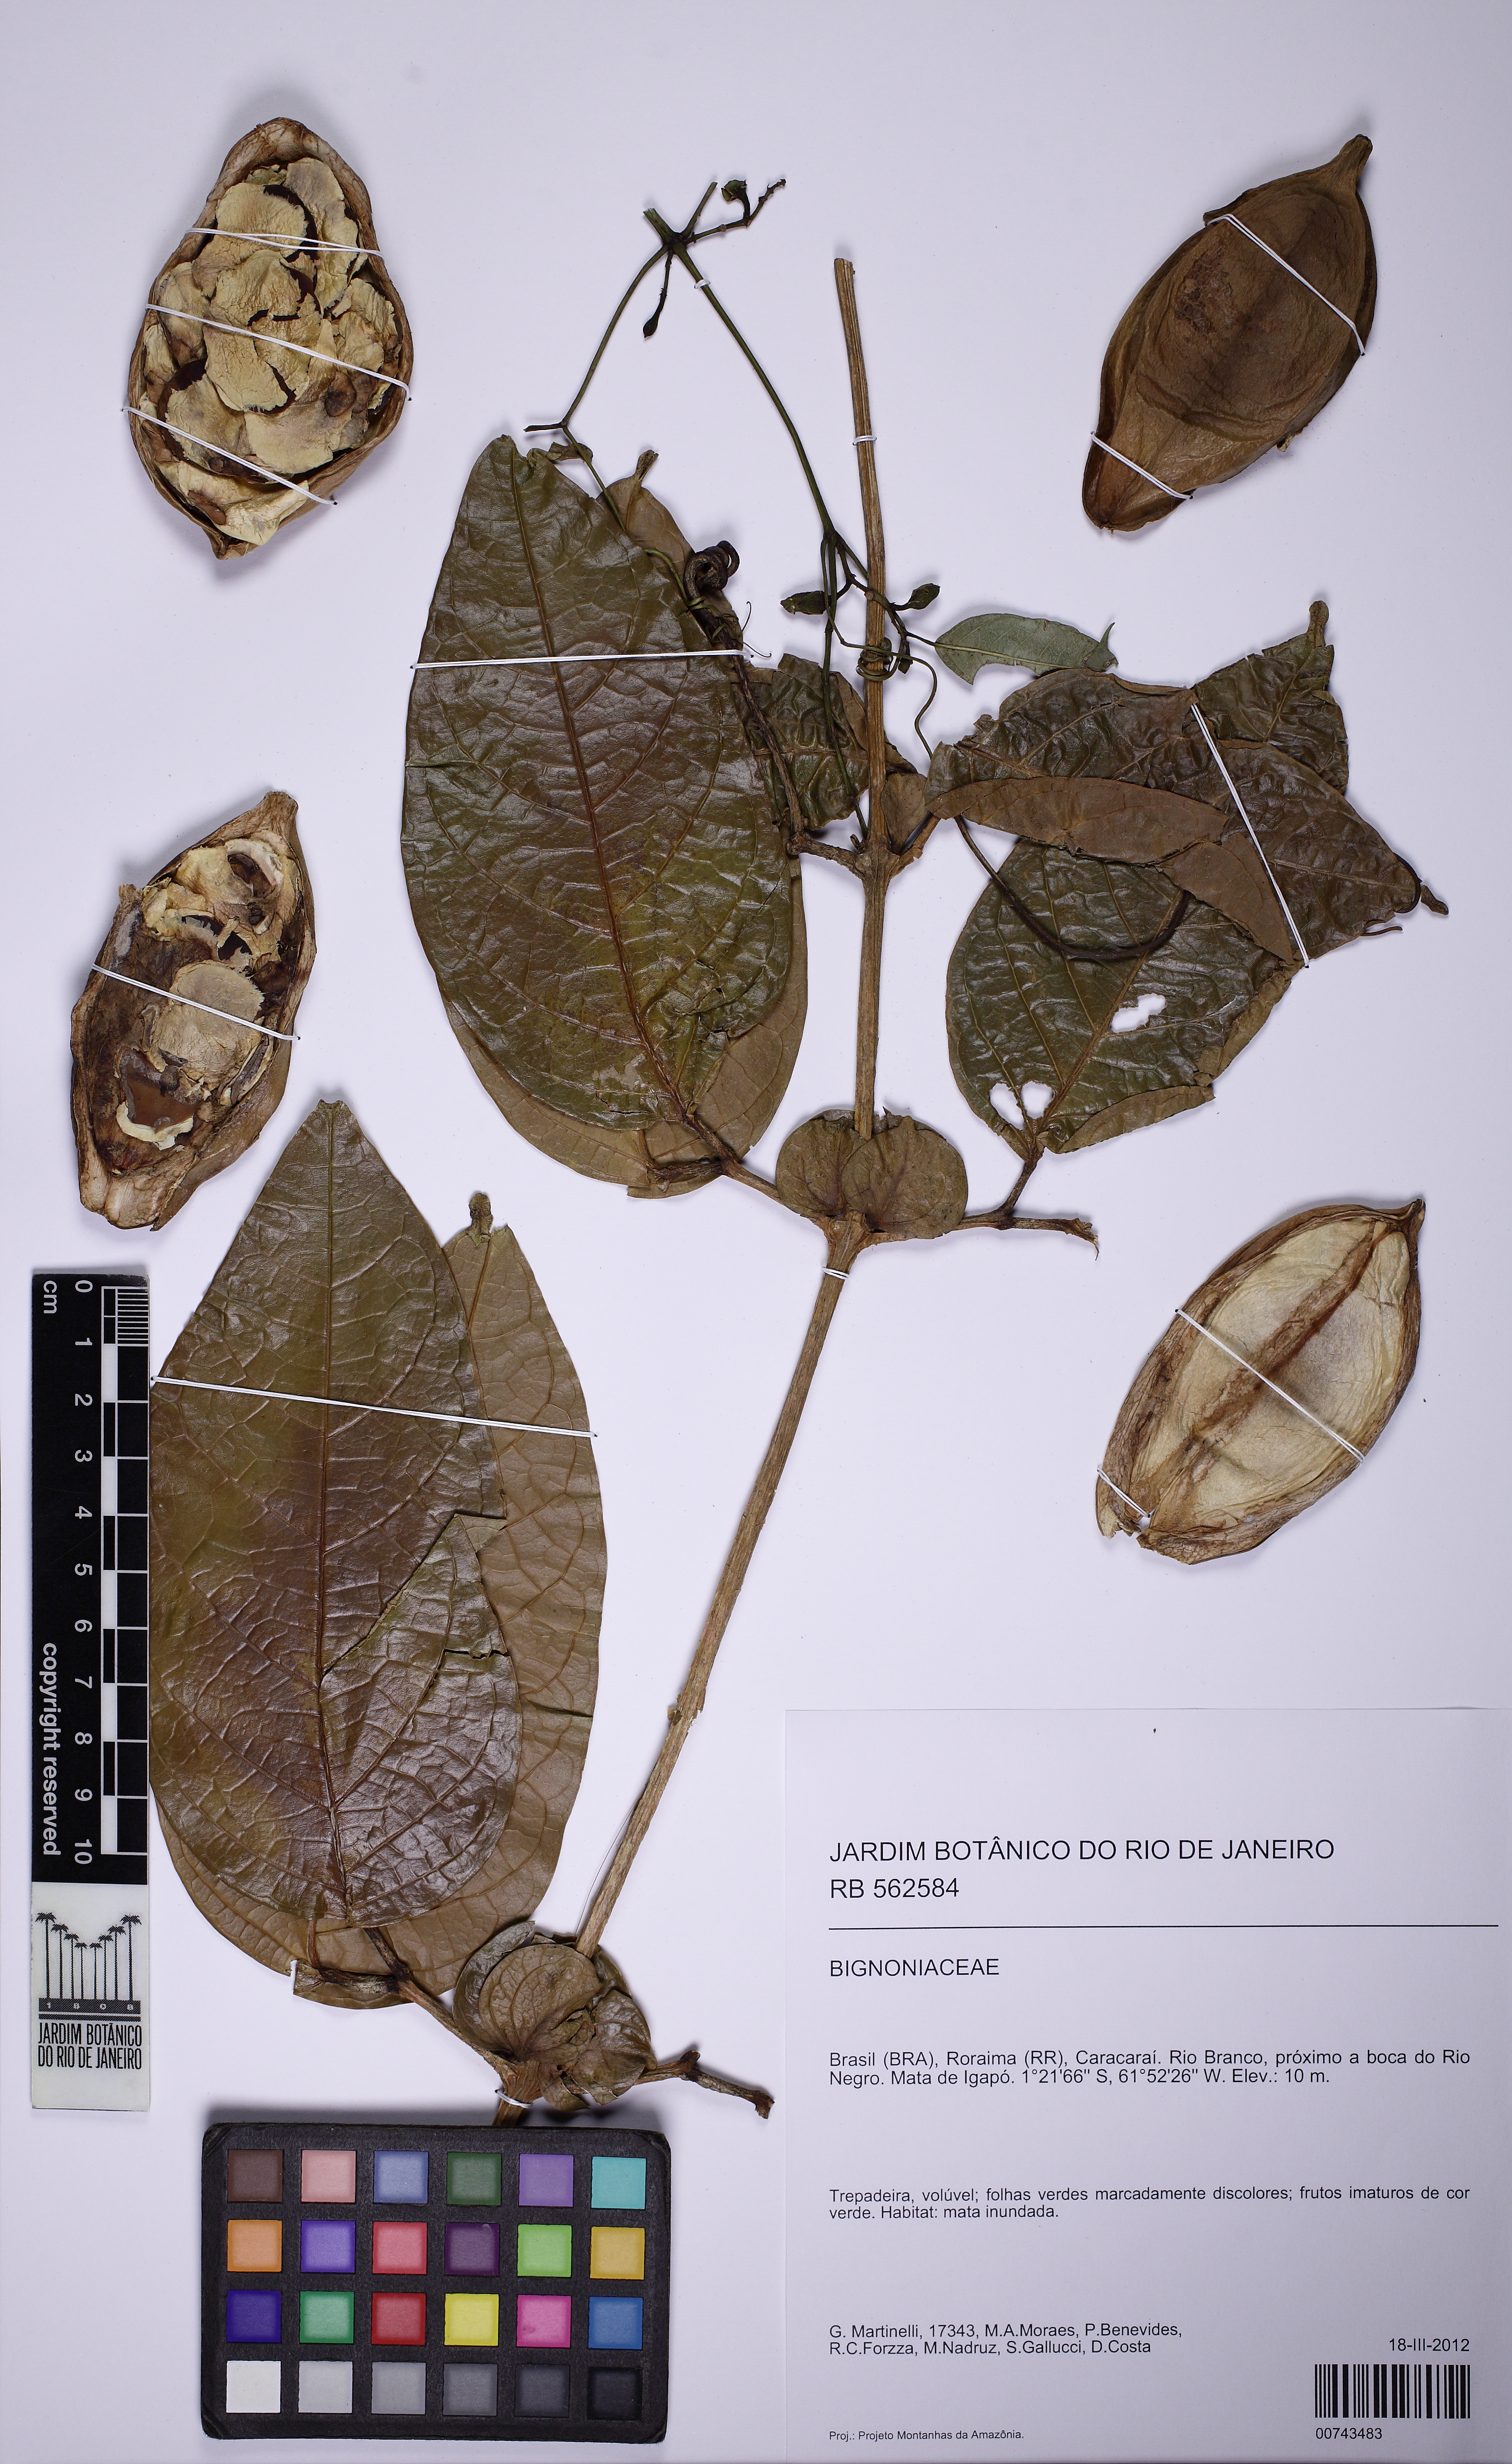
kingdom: Plantae
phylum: Tracheophyta
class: Magnoliopsida
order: Lamiales
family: Bignoniaceae
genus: Anemopaegma
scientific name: Anemopaegma paraense
